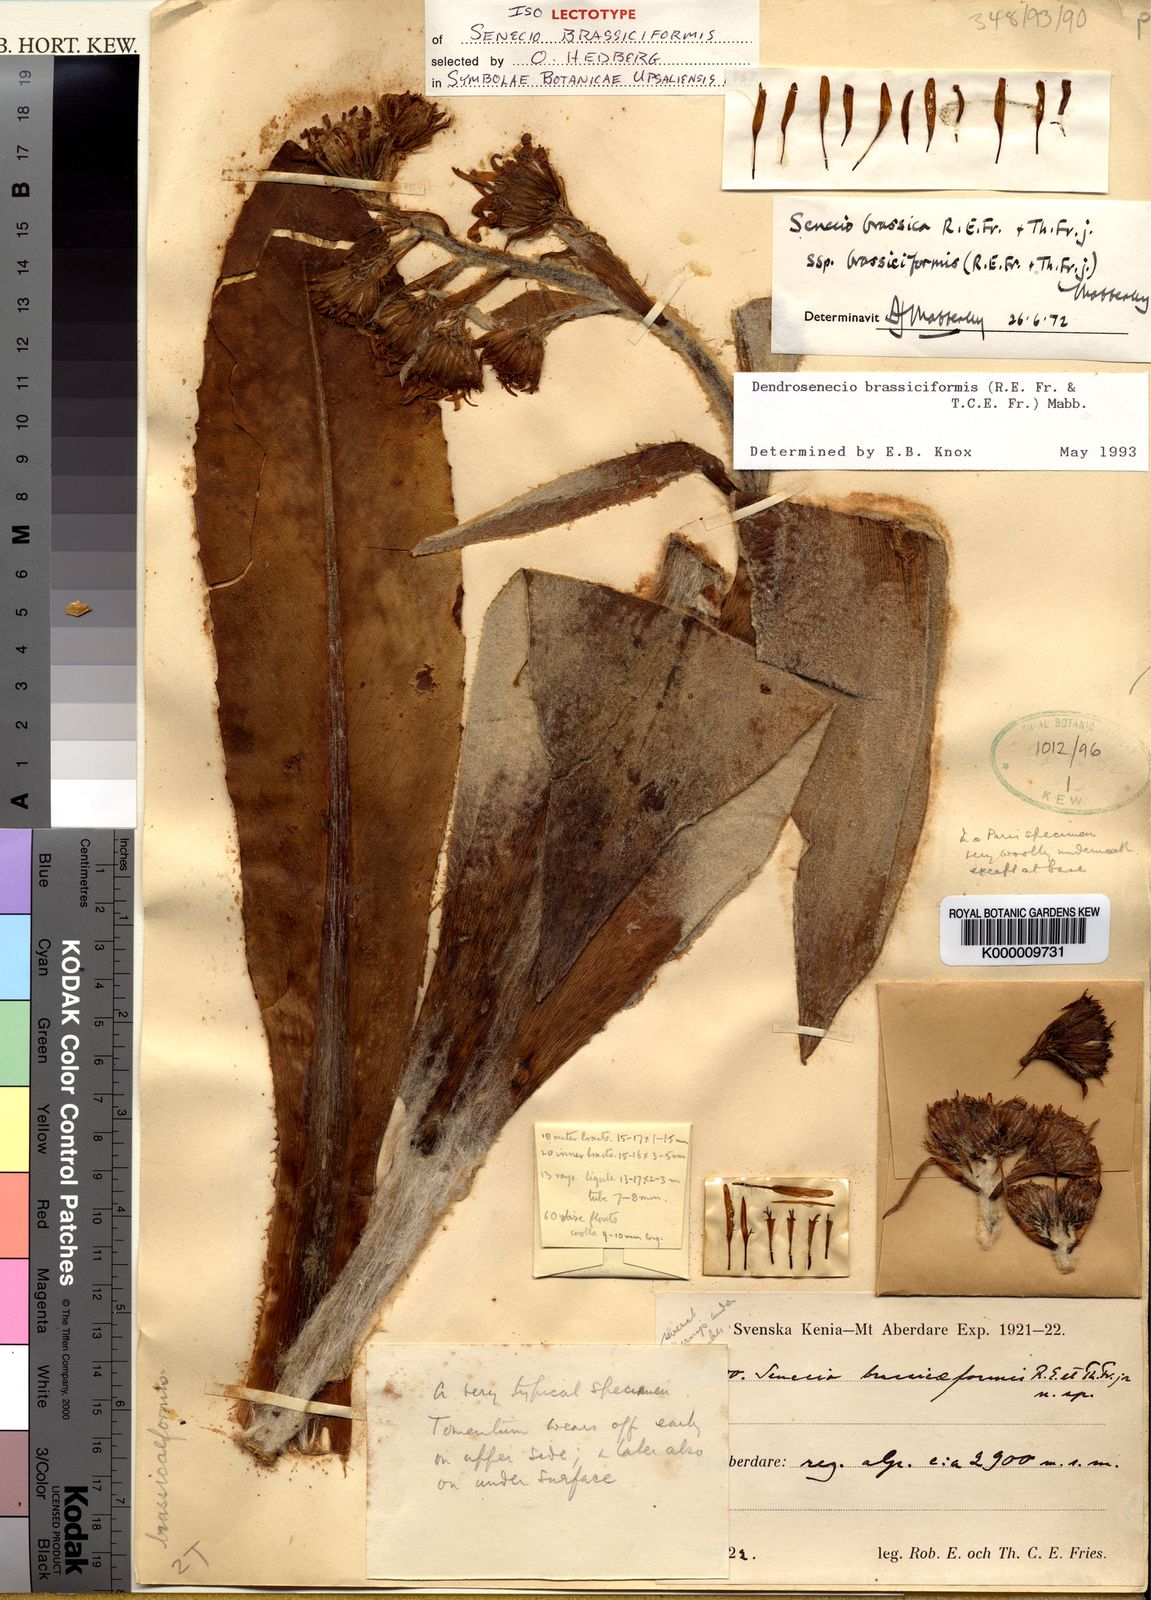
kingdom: Plantae
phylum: Tracheophyta
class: Magnoliopsida
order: Asterales
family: Asteraceae
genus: Dendrosenecio
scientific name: Dendrosenecio brassiciformis
